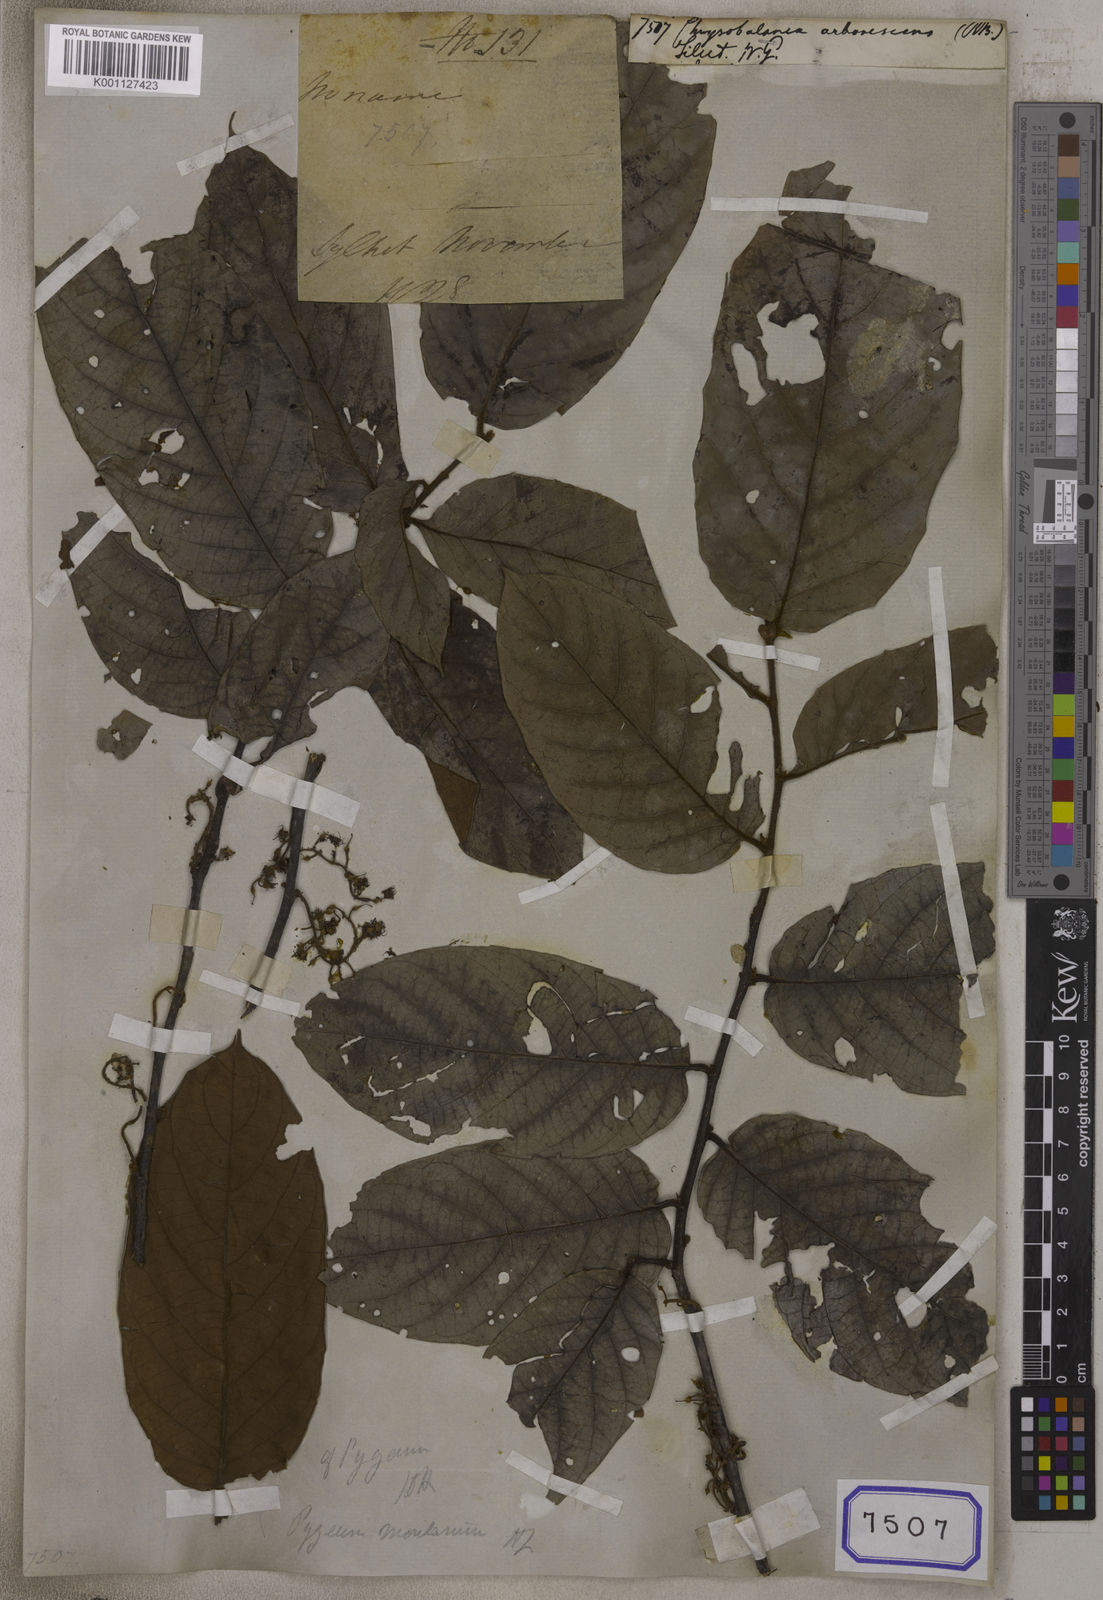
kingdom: Plantae
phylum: Tracheophyta
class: Magnoliopsida
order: Malpighiales
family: Chrysobalanaceae
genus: Chrysobalanus
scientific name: Chrysobalanus
